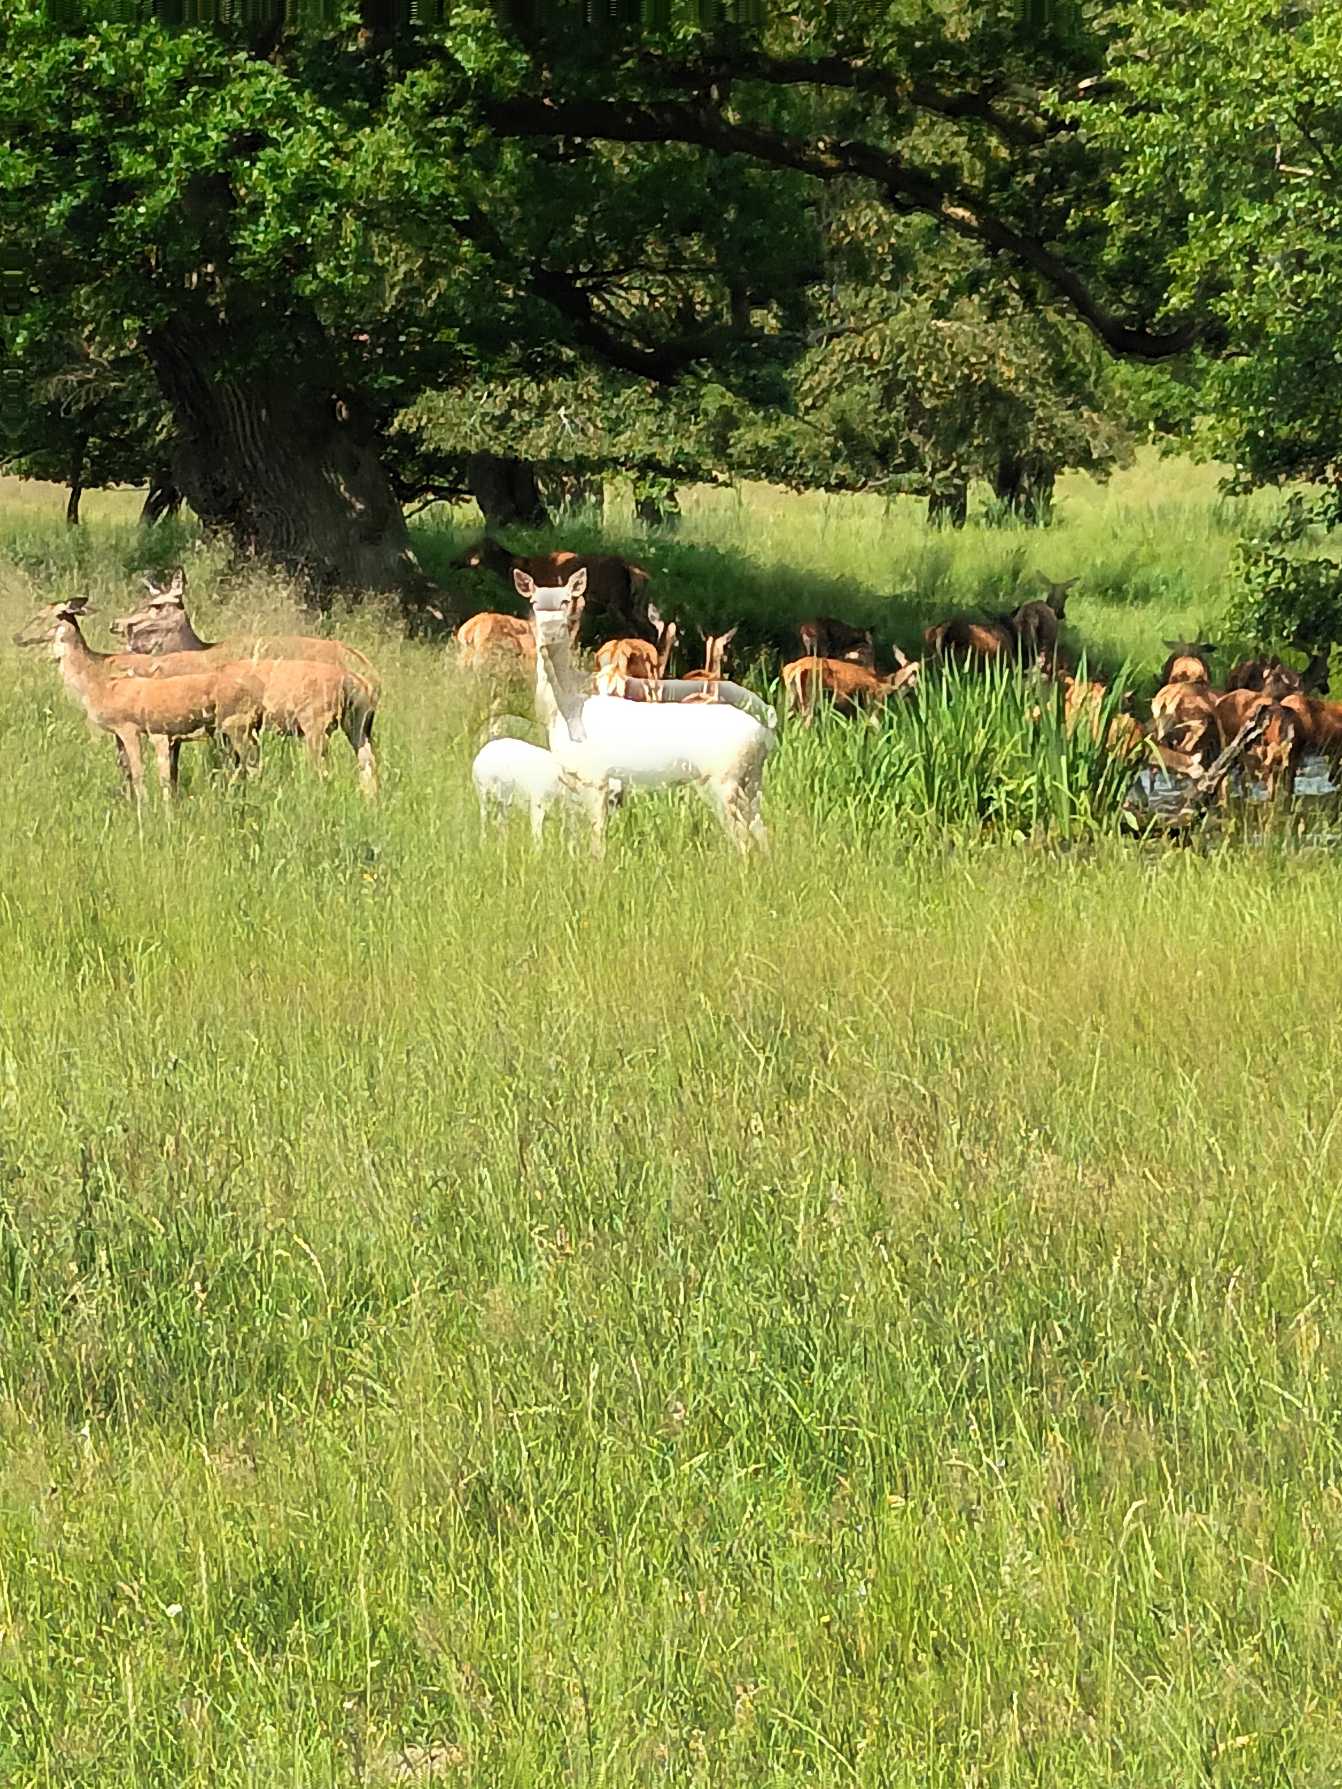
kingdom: Animalia
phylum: Chordata
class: Mammalia
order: Artiodactyla
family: Cervidae
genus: Cervus
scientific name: Cervus elaphus
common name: Krondyr
